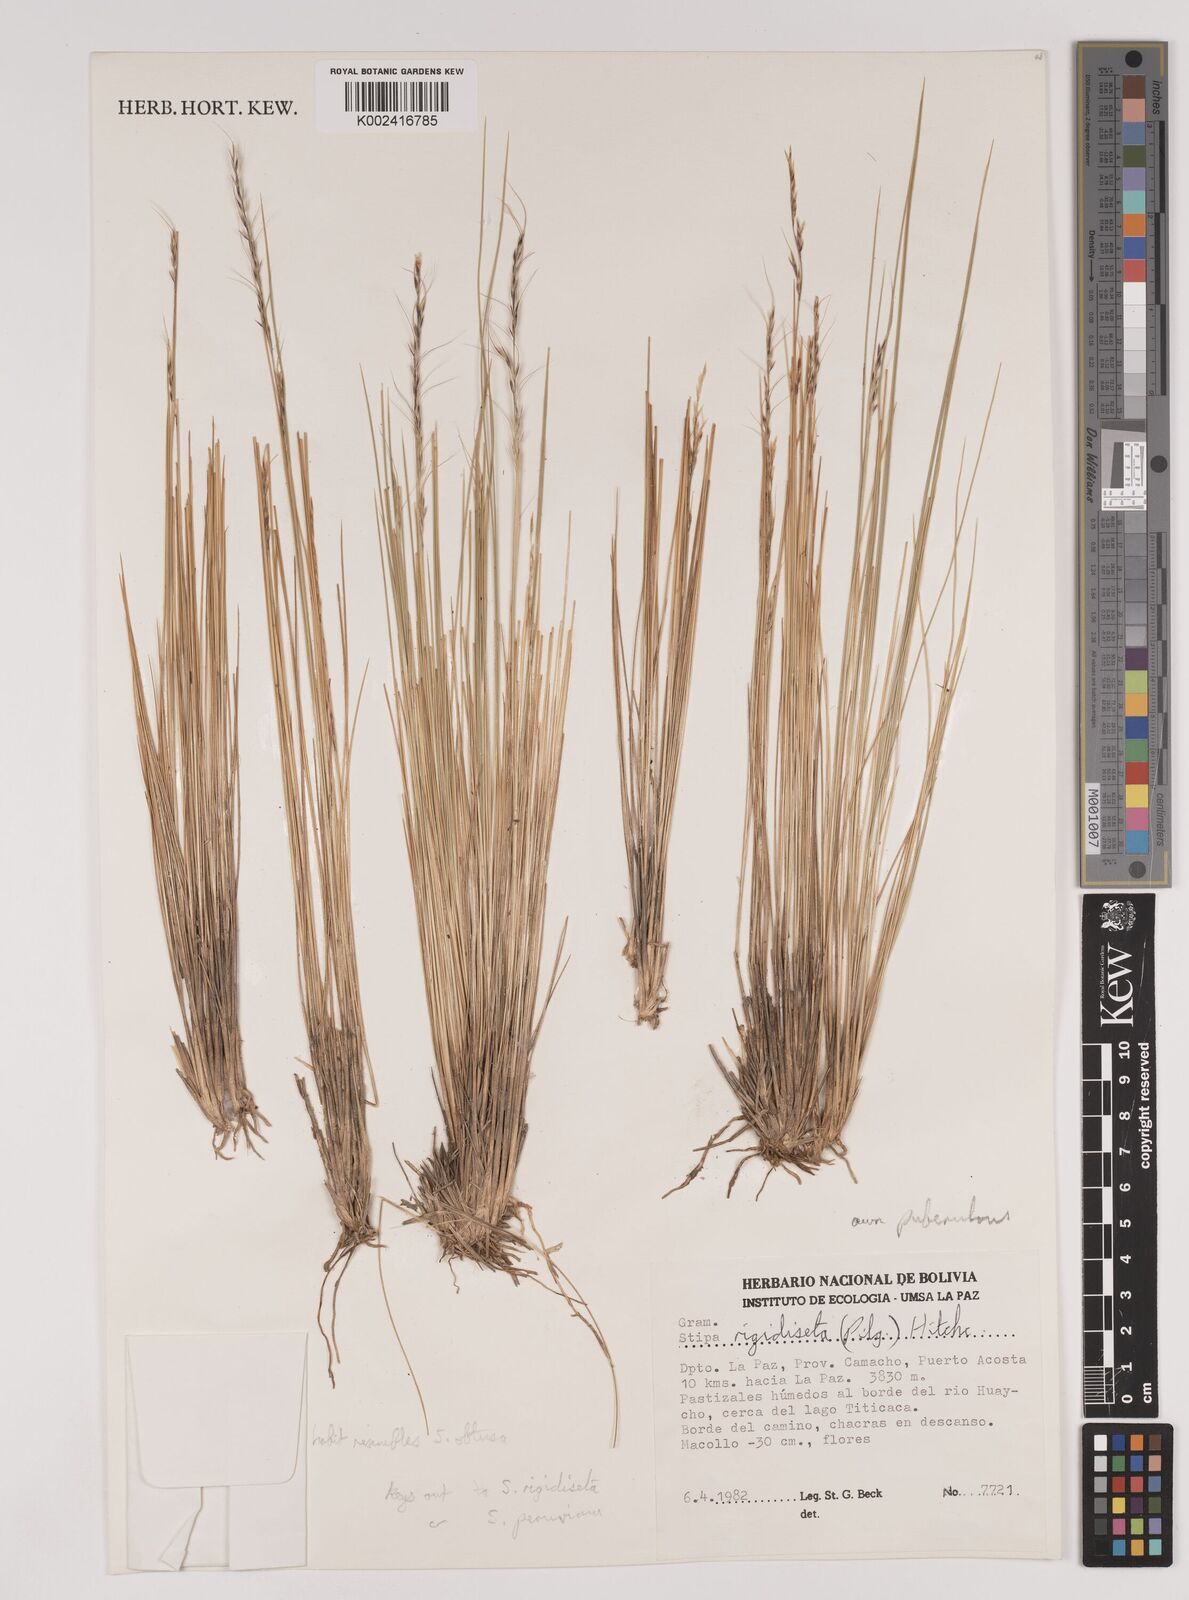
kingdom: Plantae
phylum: Tracheophyta
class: Liliopsida
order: Poales
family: Poaceae
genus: Stipa
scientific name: Stipa rigidiseta
